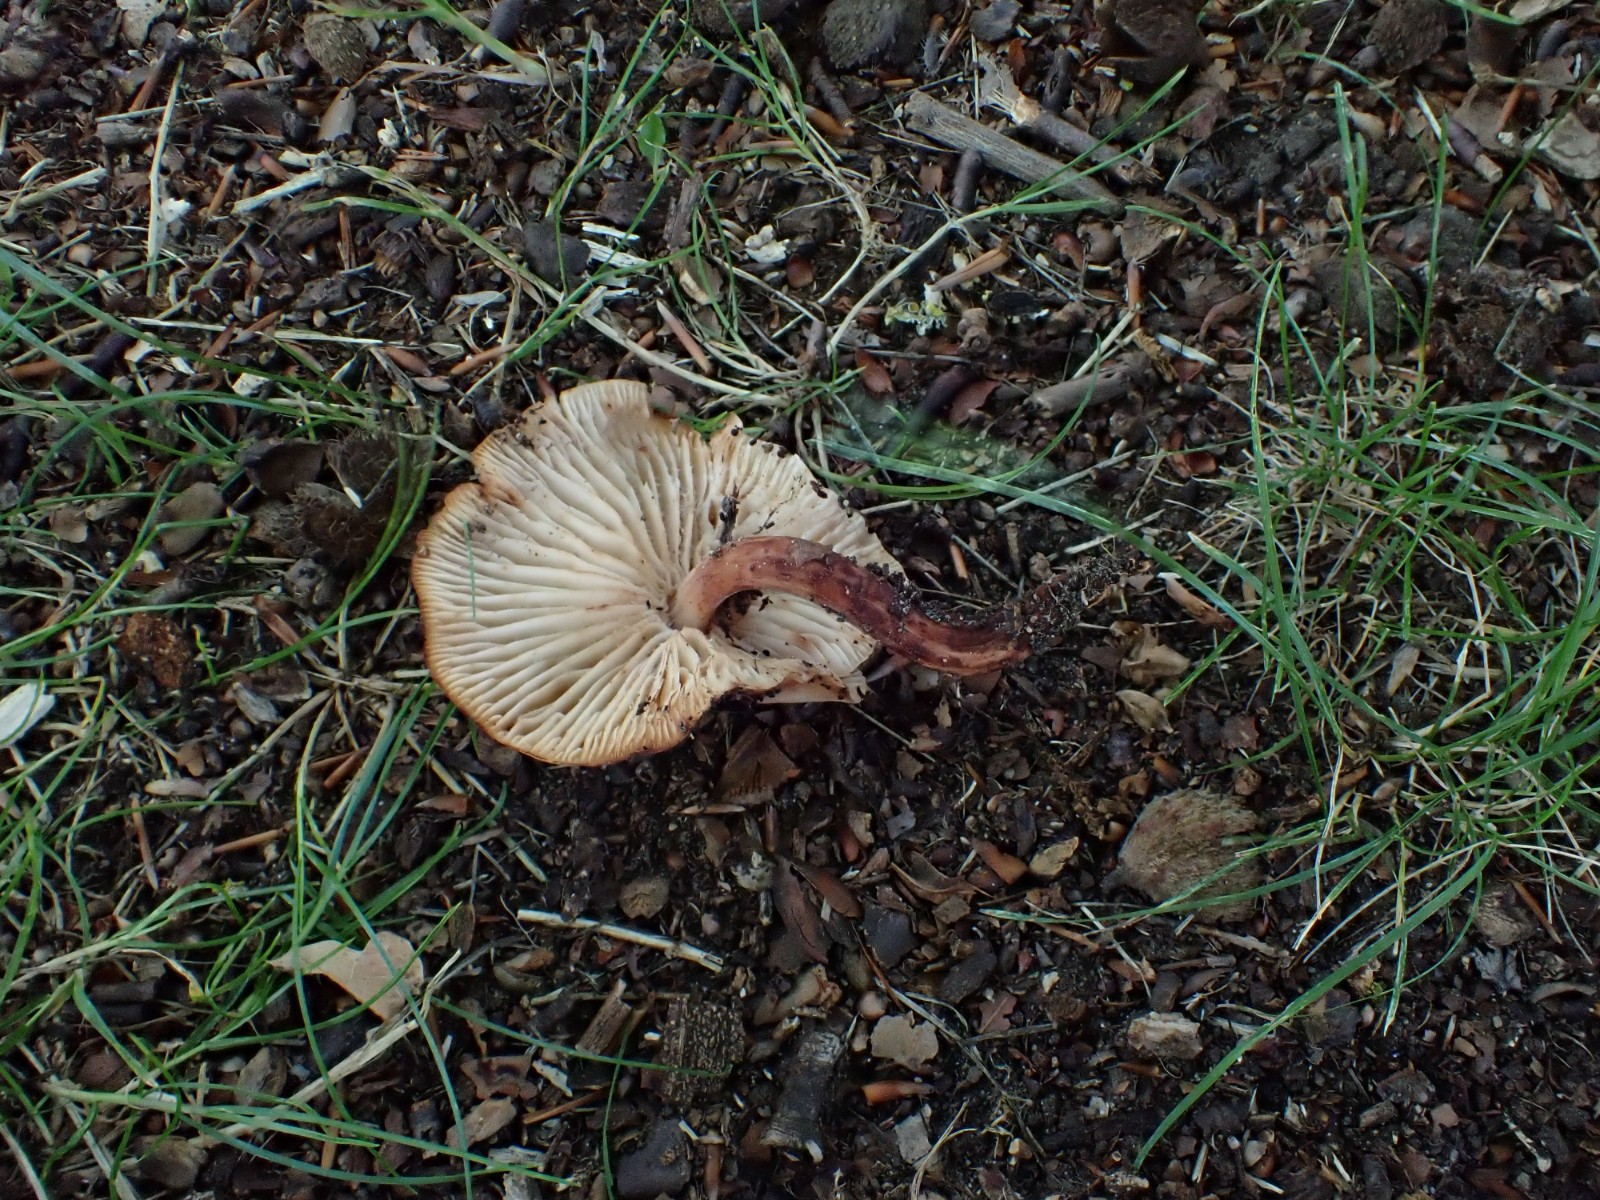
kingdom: Fungi
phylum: Basidiomycota
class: Agaricomycetes
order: Agaricales
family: Omphalotaceae
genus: Gymnopus
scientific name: Gymnopus fusipes
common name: tenstokket fladhat
